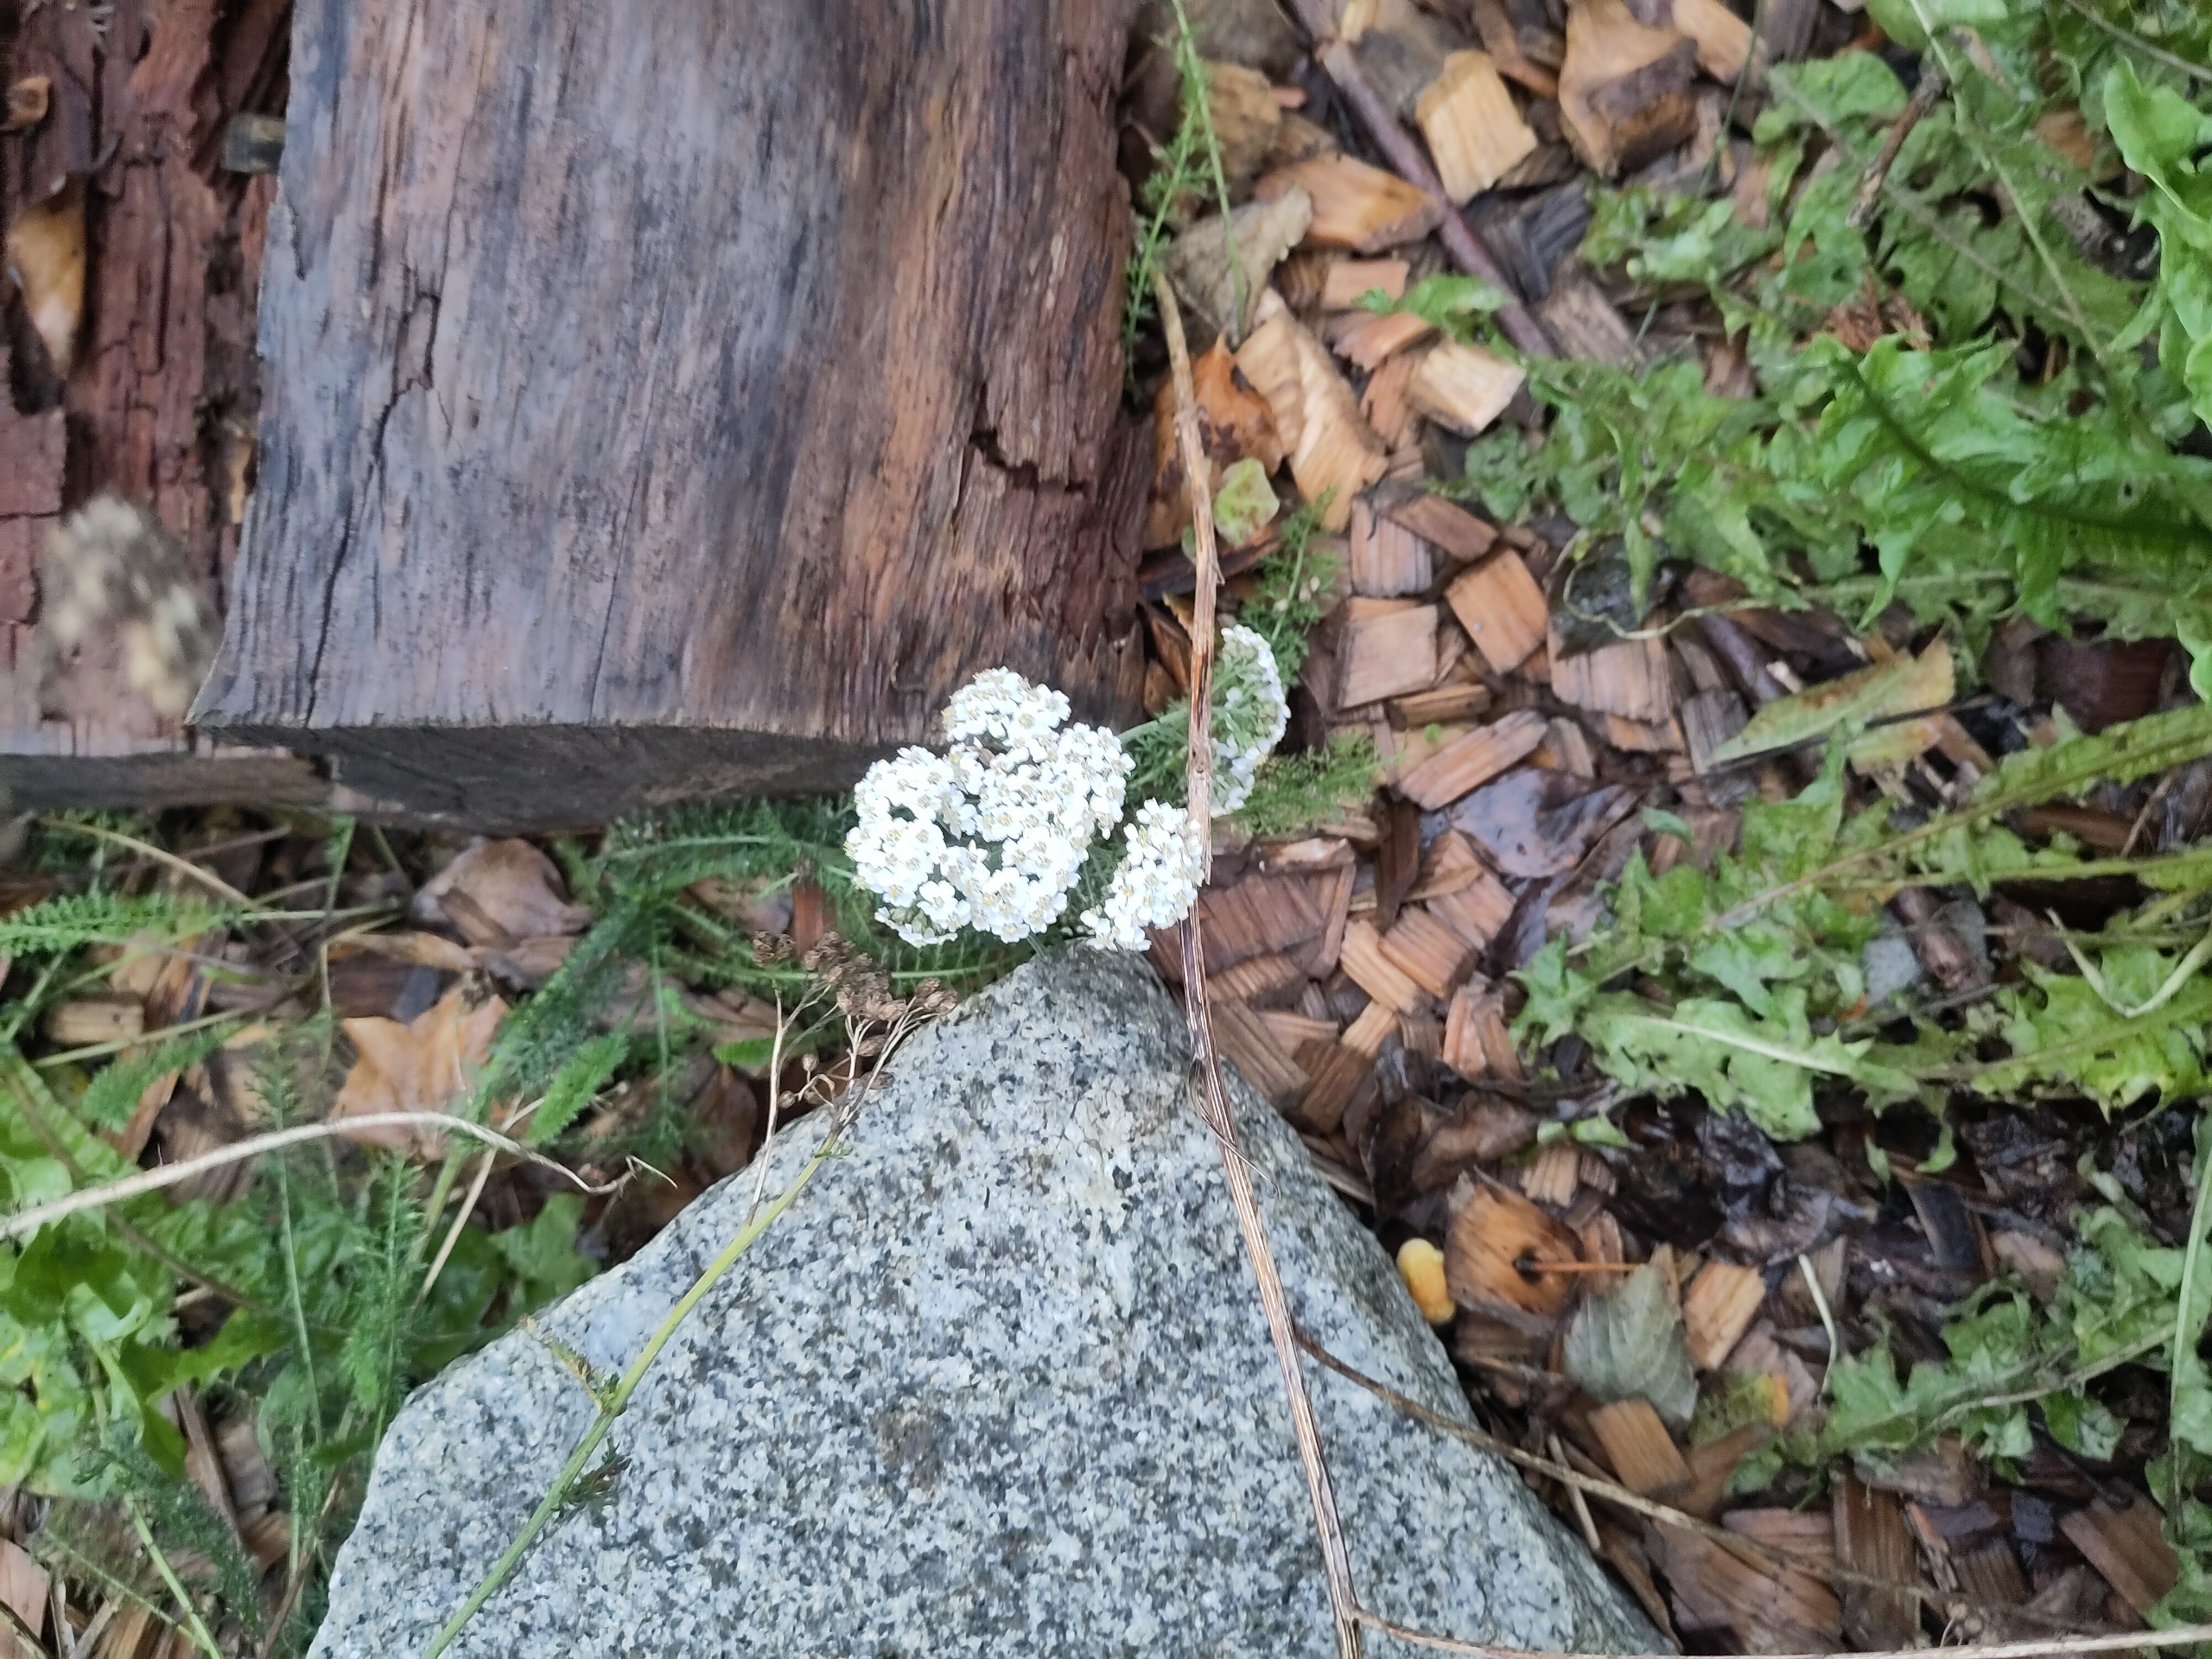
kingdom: Plantae
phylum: Tracheophyta
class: Magnoliopsida
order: Asterales
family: Asteraceae
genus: Achillea
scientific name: Achillea millefolium
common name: Almindelig røllike
